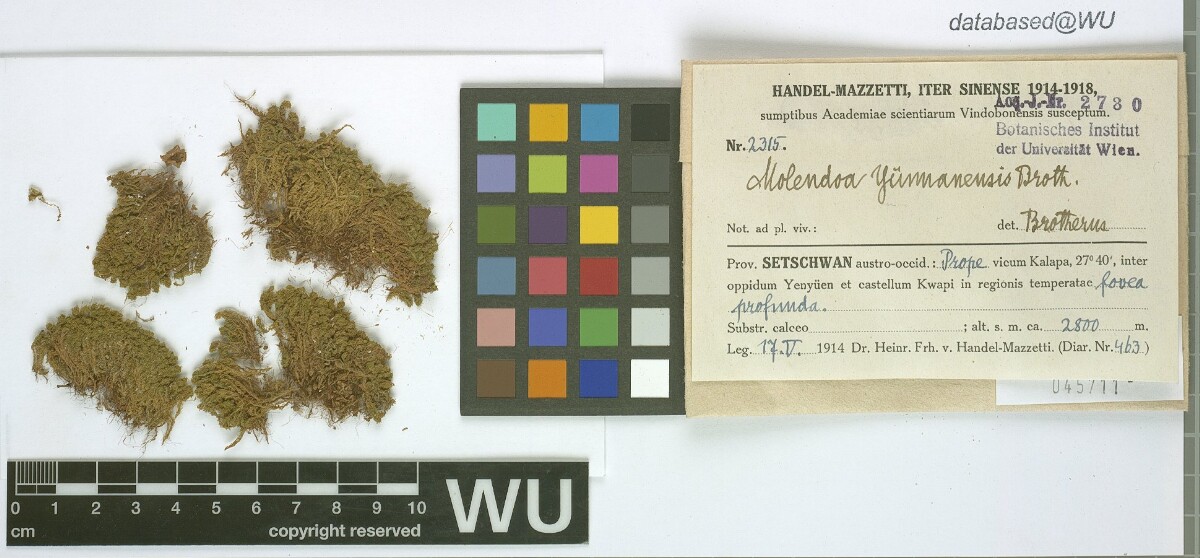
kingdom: Plantae
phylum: Bryophyta
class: Bryopsida
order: Pottiales
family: Pottiaceae
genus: Molendoa
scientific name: Molendoa sendtneriana
